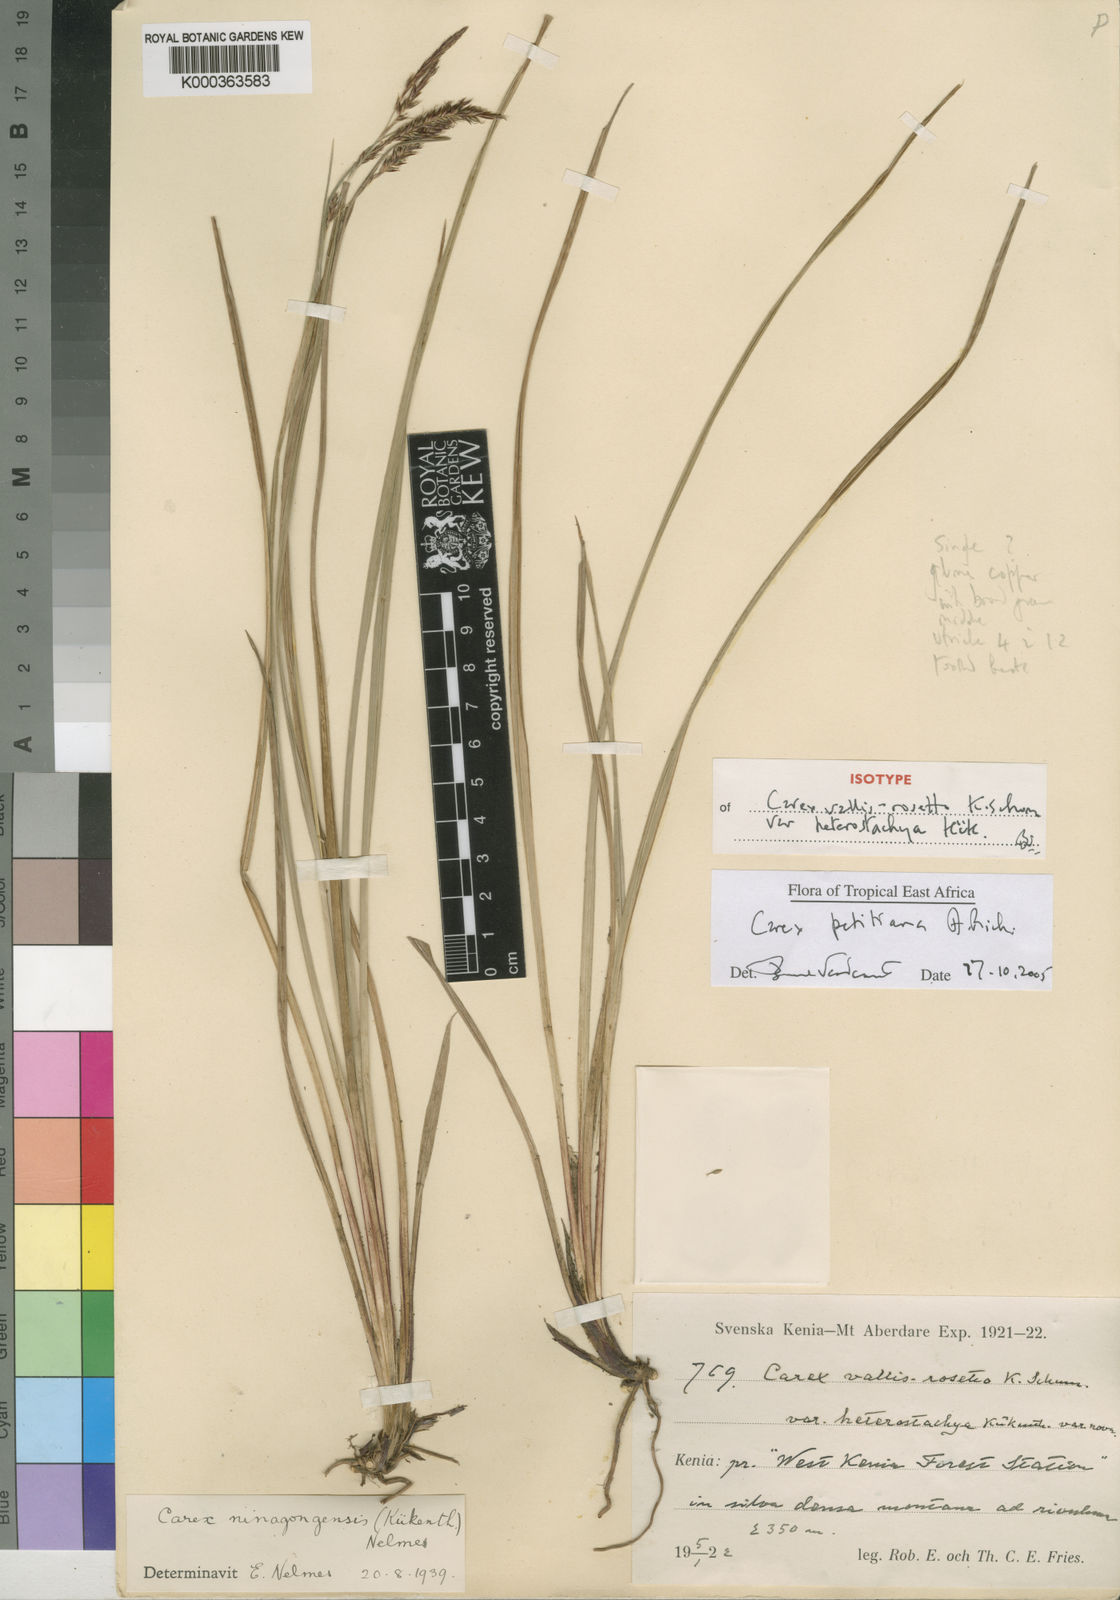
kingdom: Plantae
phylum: Tracheophyta
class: Liliopsida
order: Poales
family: Cyperaceae
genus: Carex
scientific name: Carex
